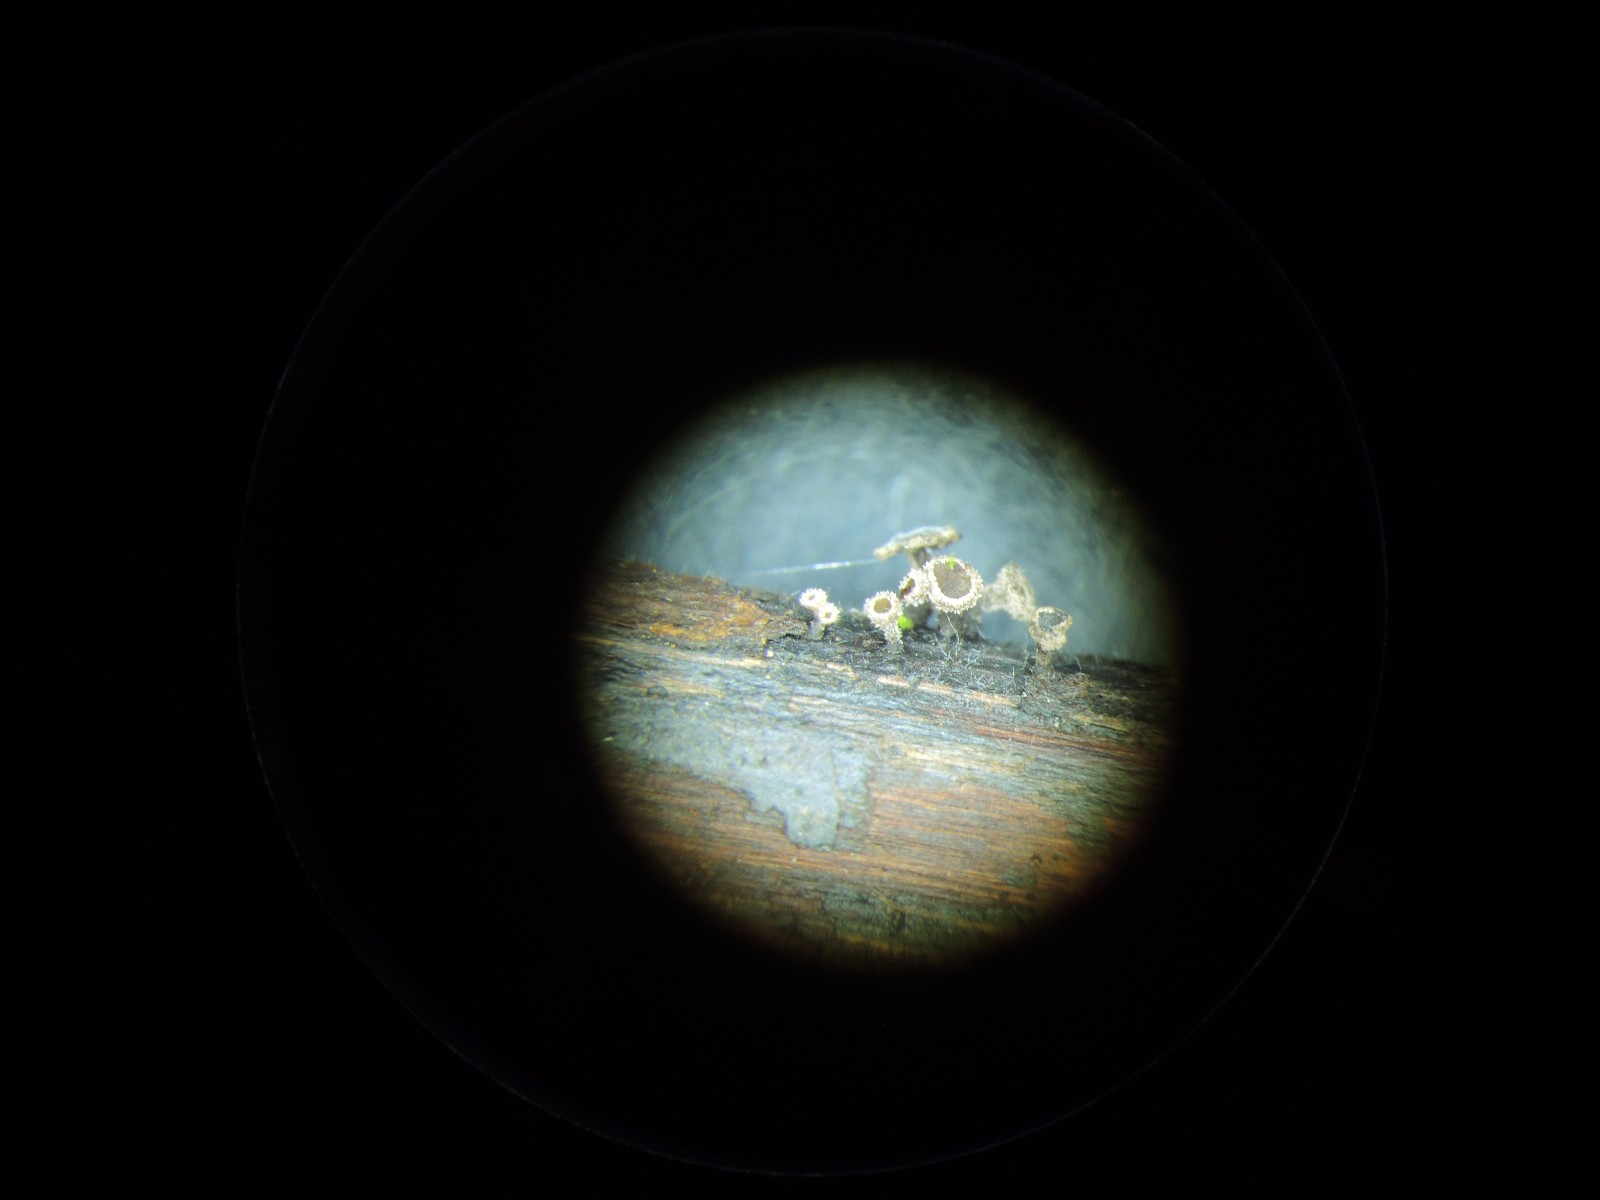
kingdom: Fungi
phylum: Ascomycota
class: Leotiomycetes
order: Helotiales
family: Lachnaceae
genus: Lachnum
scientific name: Lachnum pudibundum
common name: brude-frynseskive
